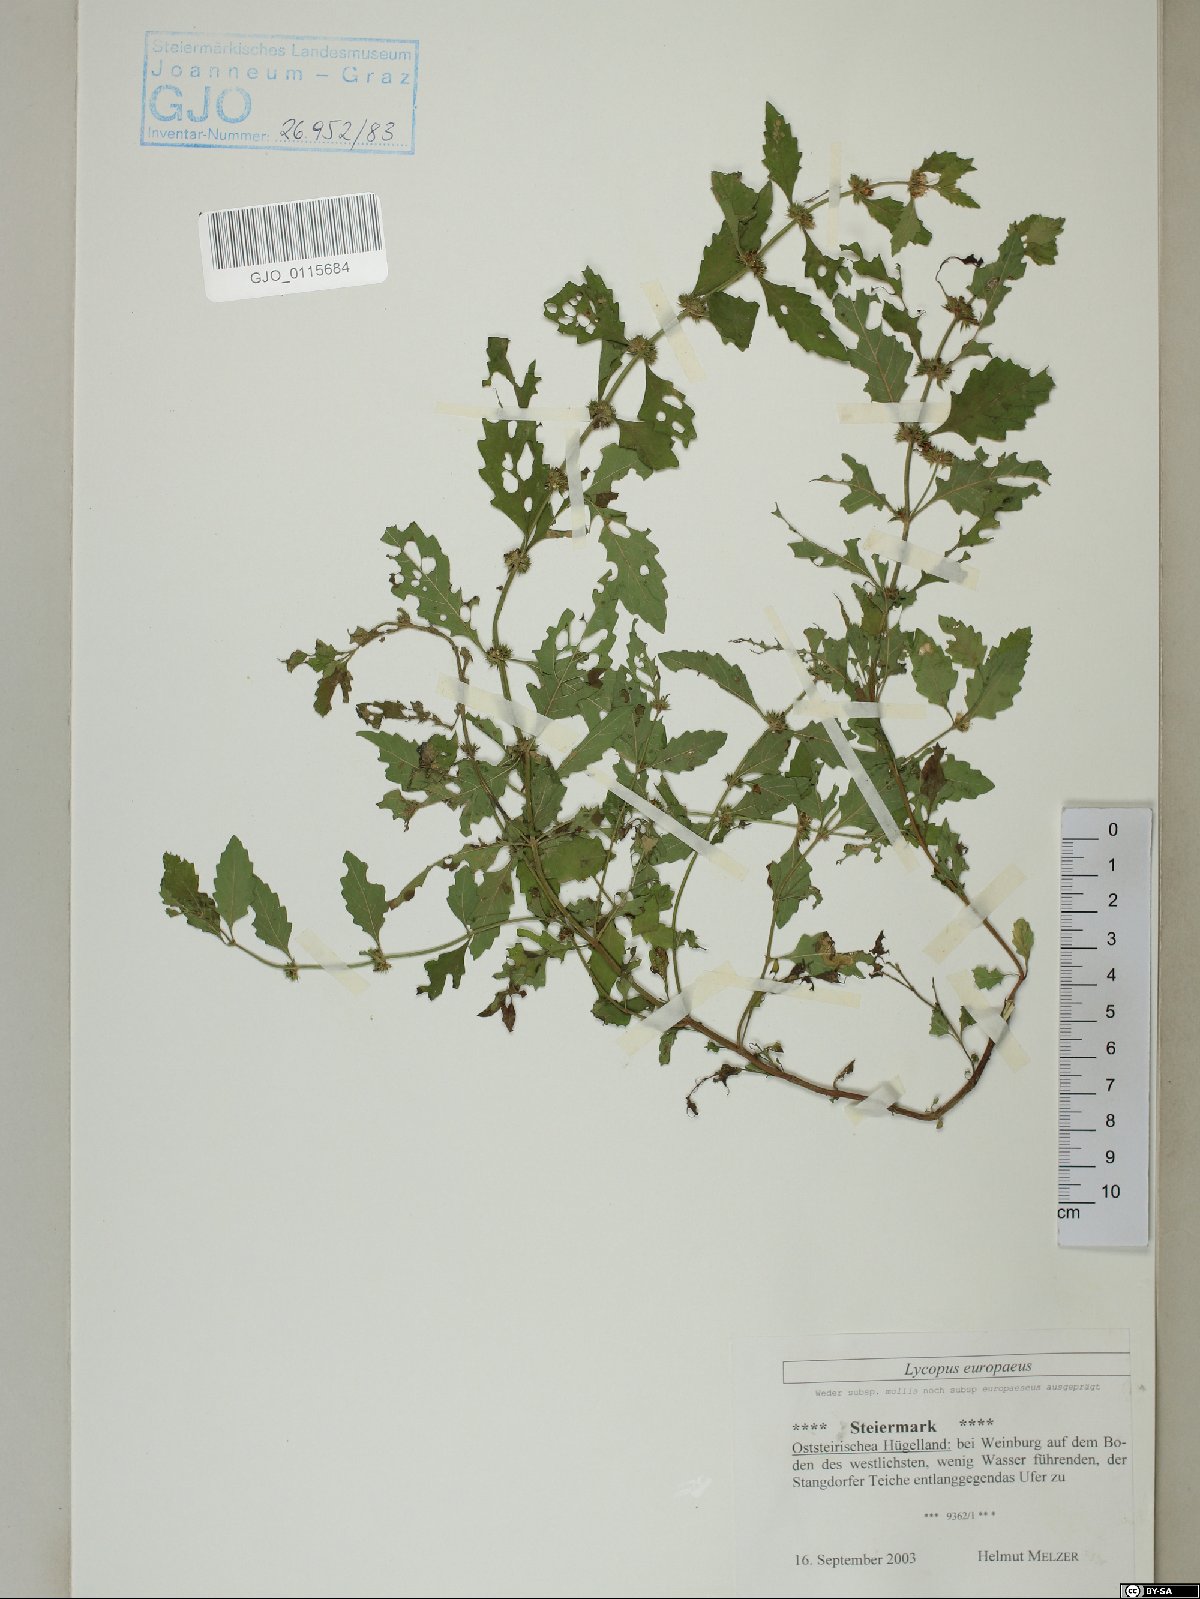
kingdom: Plantae
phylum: Tracheophyta
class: Magnoliopsida
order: Lamiales
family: Lamiaceae
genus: Lycopus
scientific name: Lycopus europaeus
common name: European bugleweed
